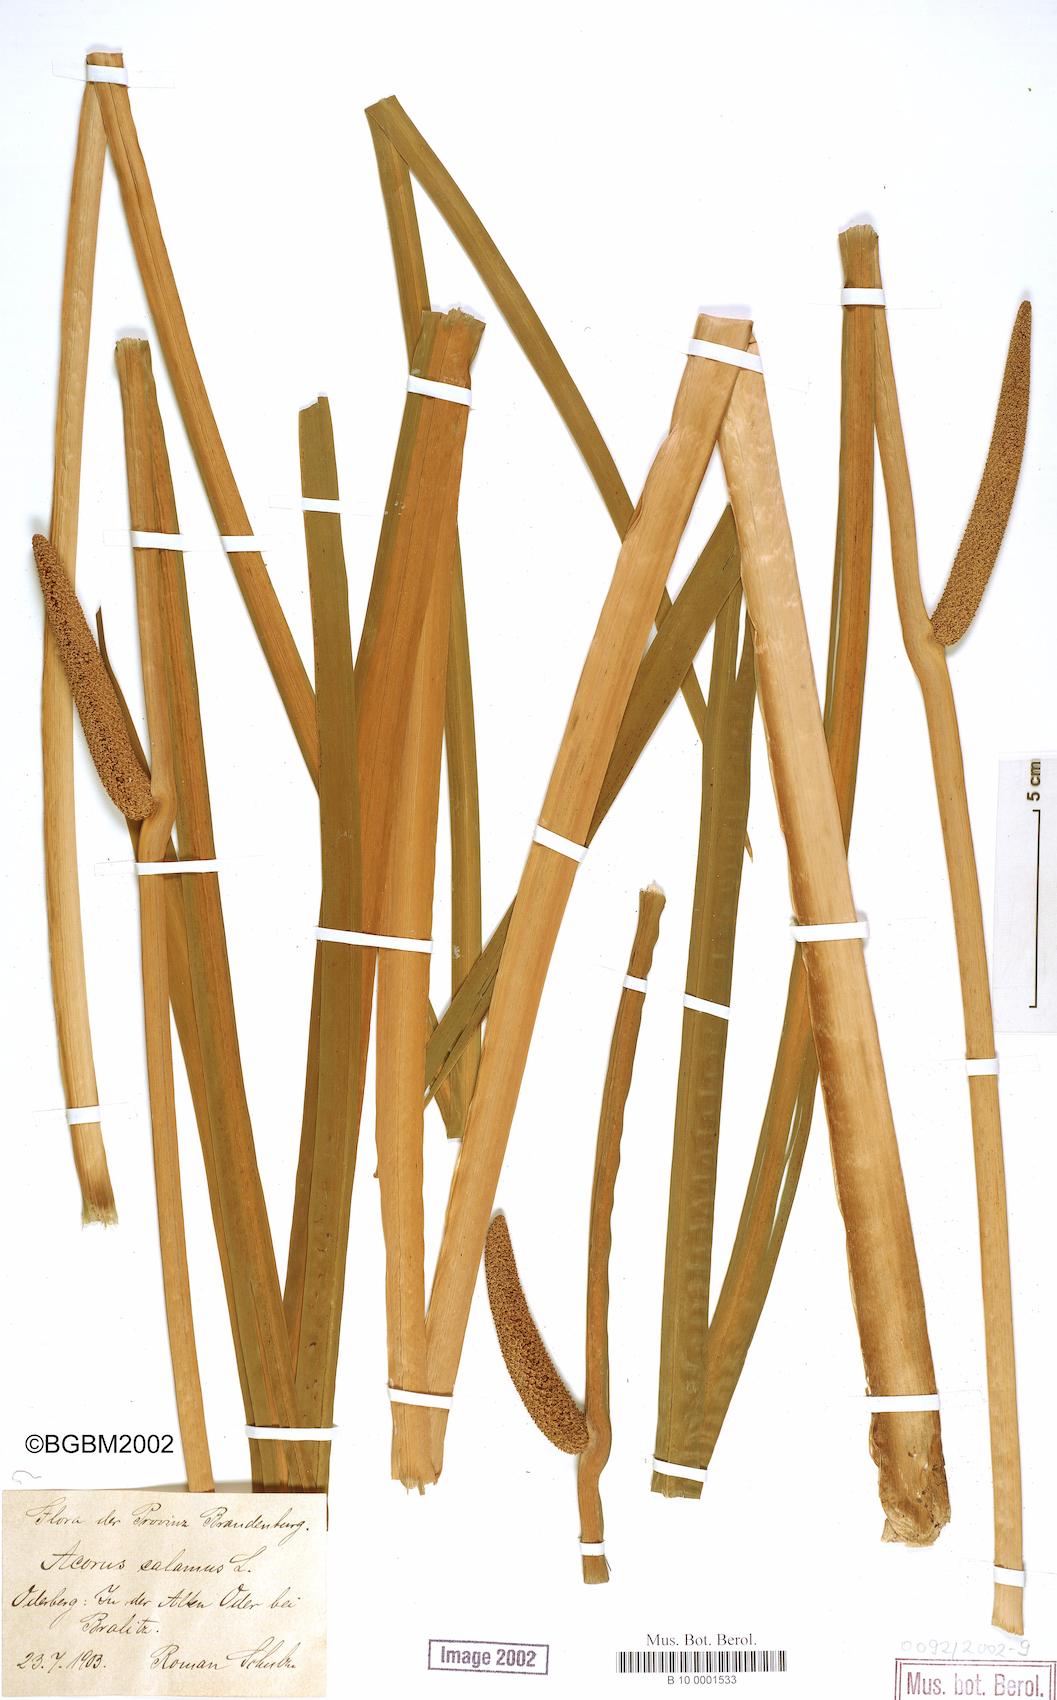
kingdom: Plantae
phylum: Tracheophyta
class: Liliopsida
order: Acorales
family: Acoraceae
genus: Acorus
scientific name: Acorus calamus
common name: Sweet-flag
